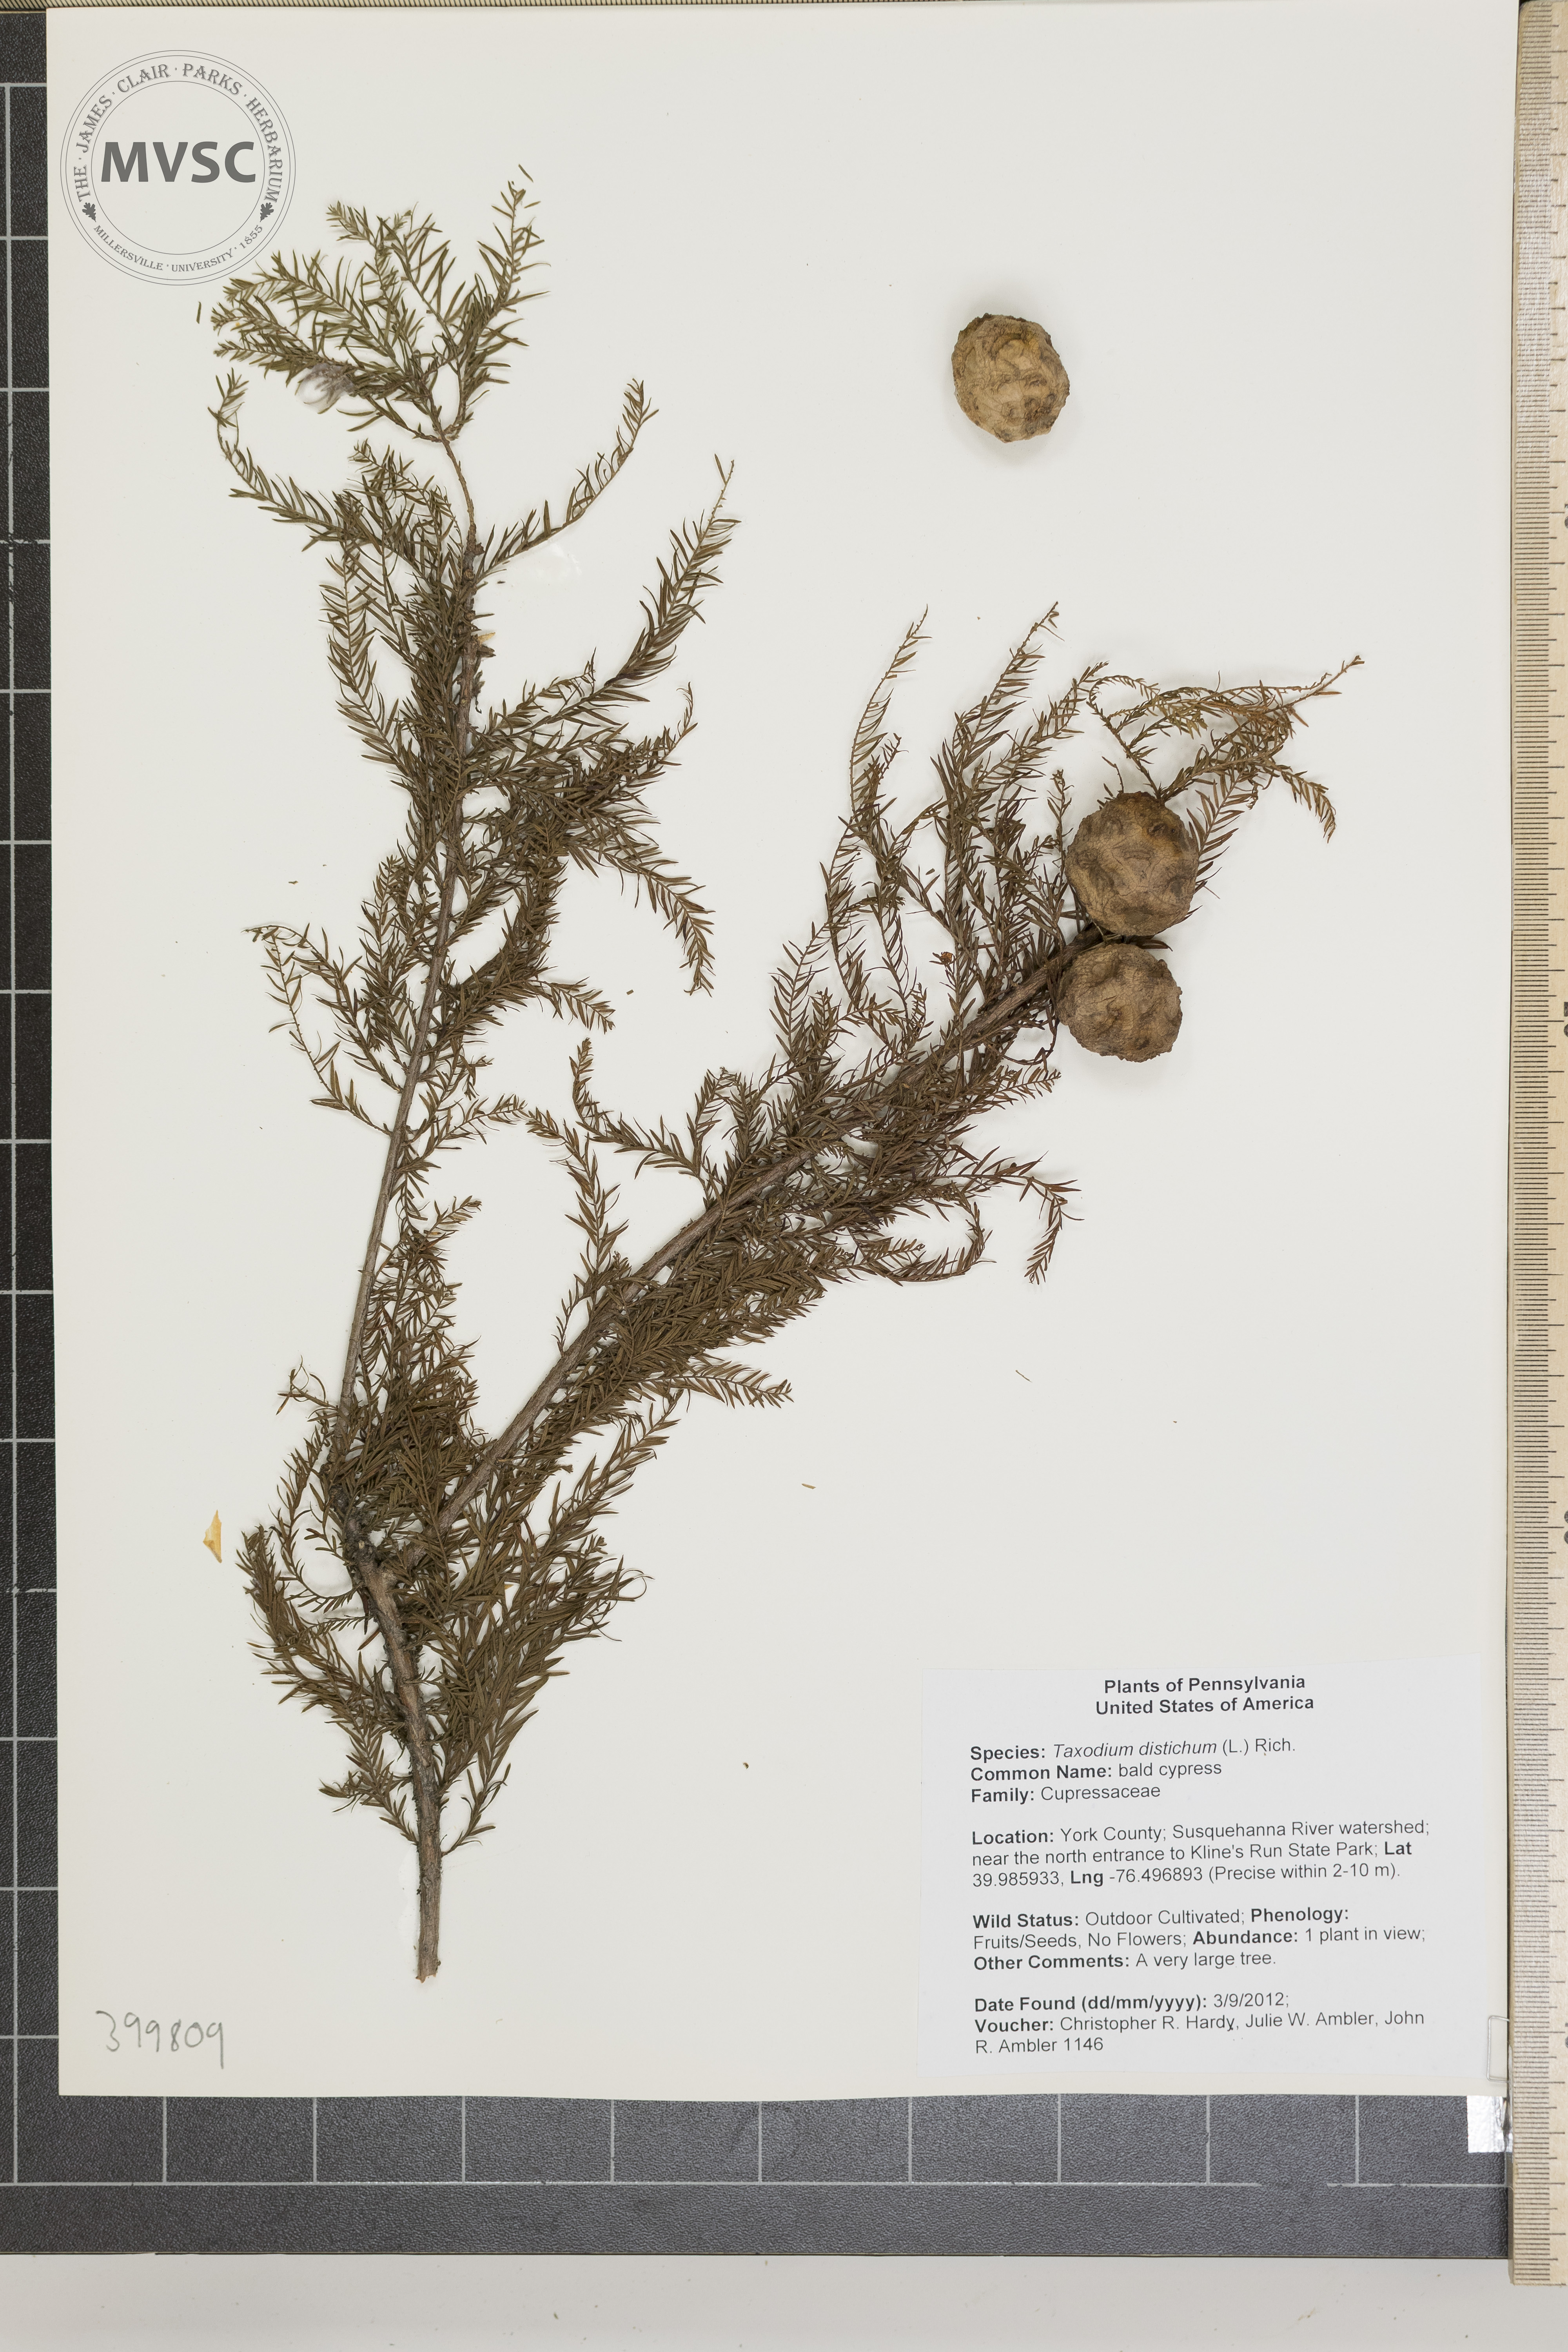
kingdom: Plantae
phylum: Tracheophyta
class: Pinopsida
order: Pinales
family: Cupressaceae
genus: Taxodium
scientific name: Taxodium distichum
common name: bald cypress
